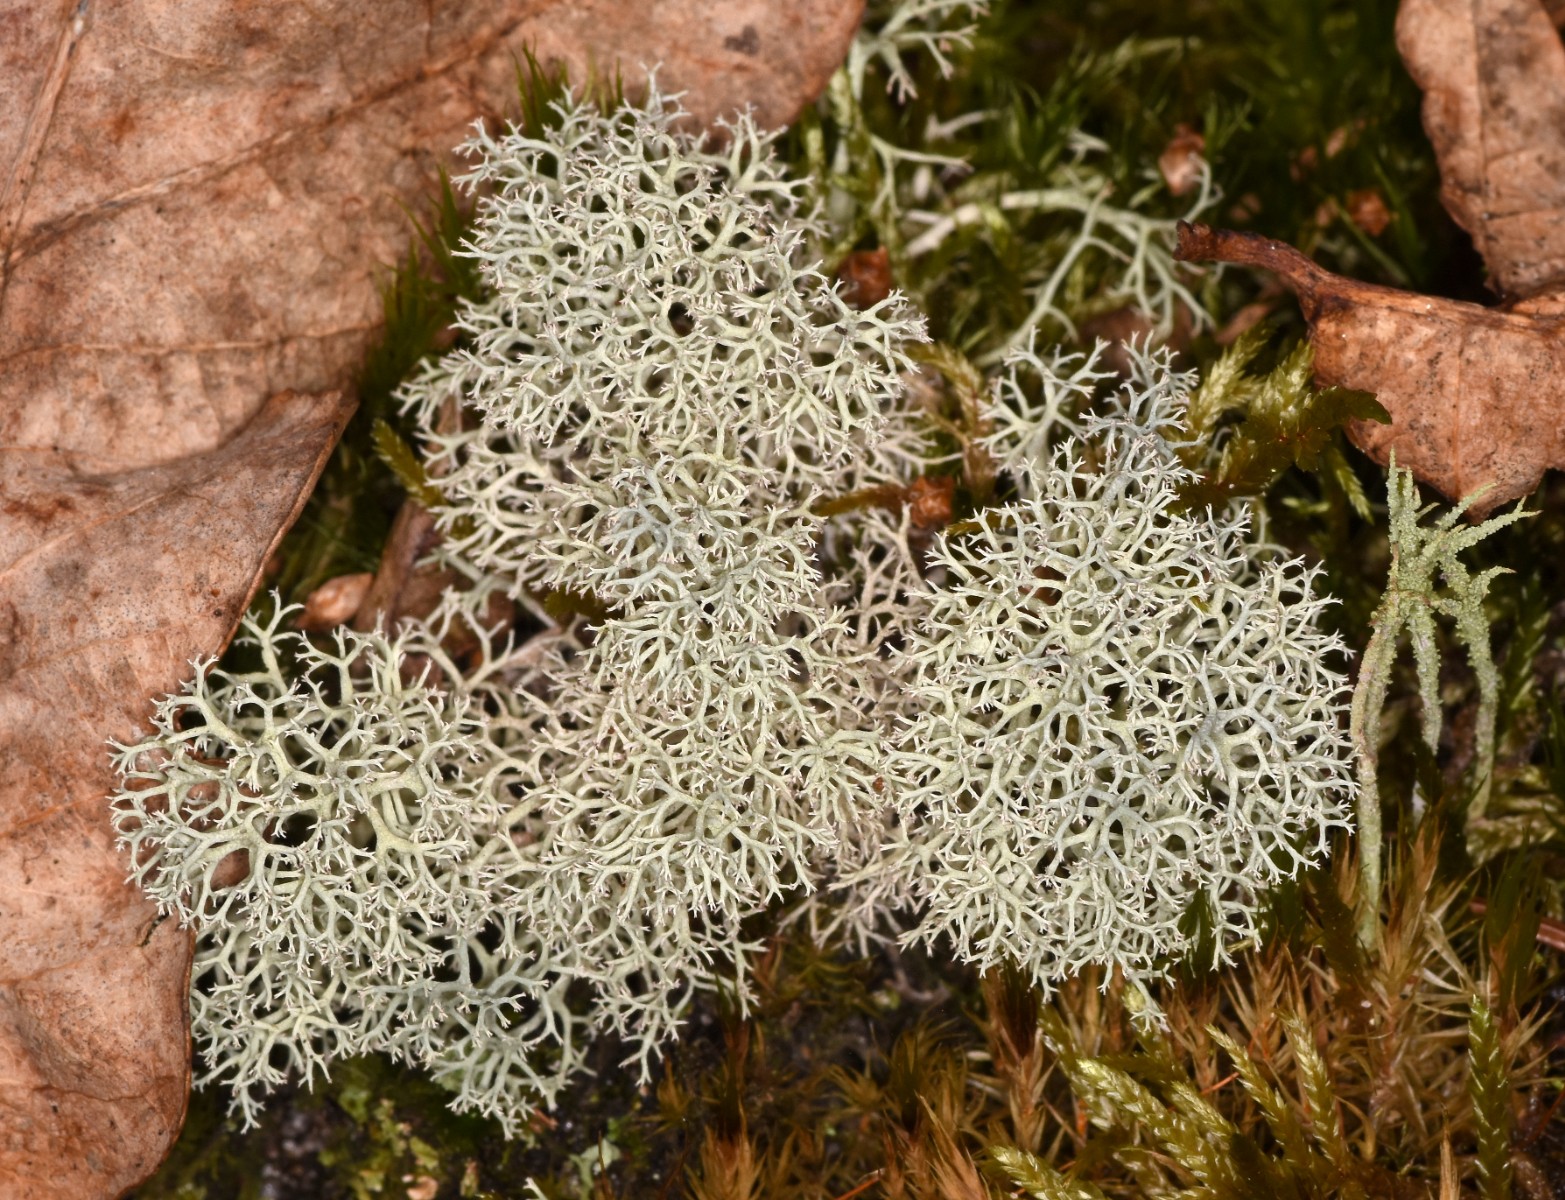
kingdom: Fungi
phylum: Ascomycota
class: Lecanoromycetes
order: Lecanorales
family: Cladoniaceae
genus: Cladonia
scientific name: Cladonia portentosa
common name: hede-rensdyrlav
